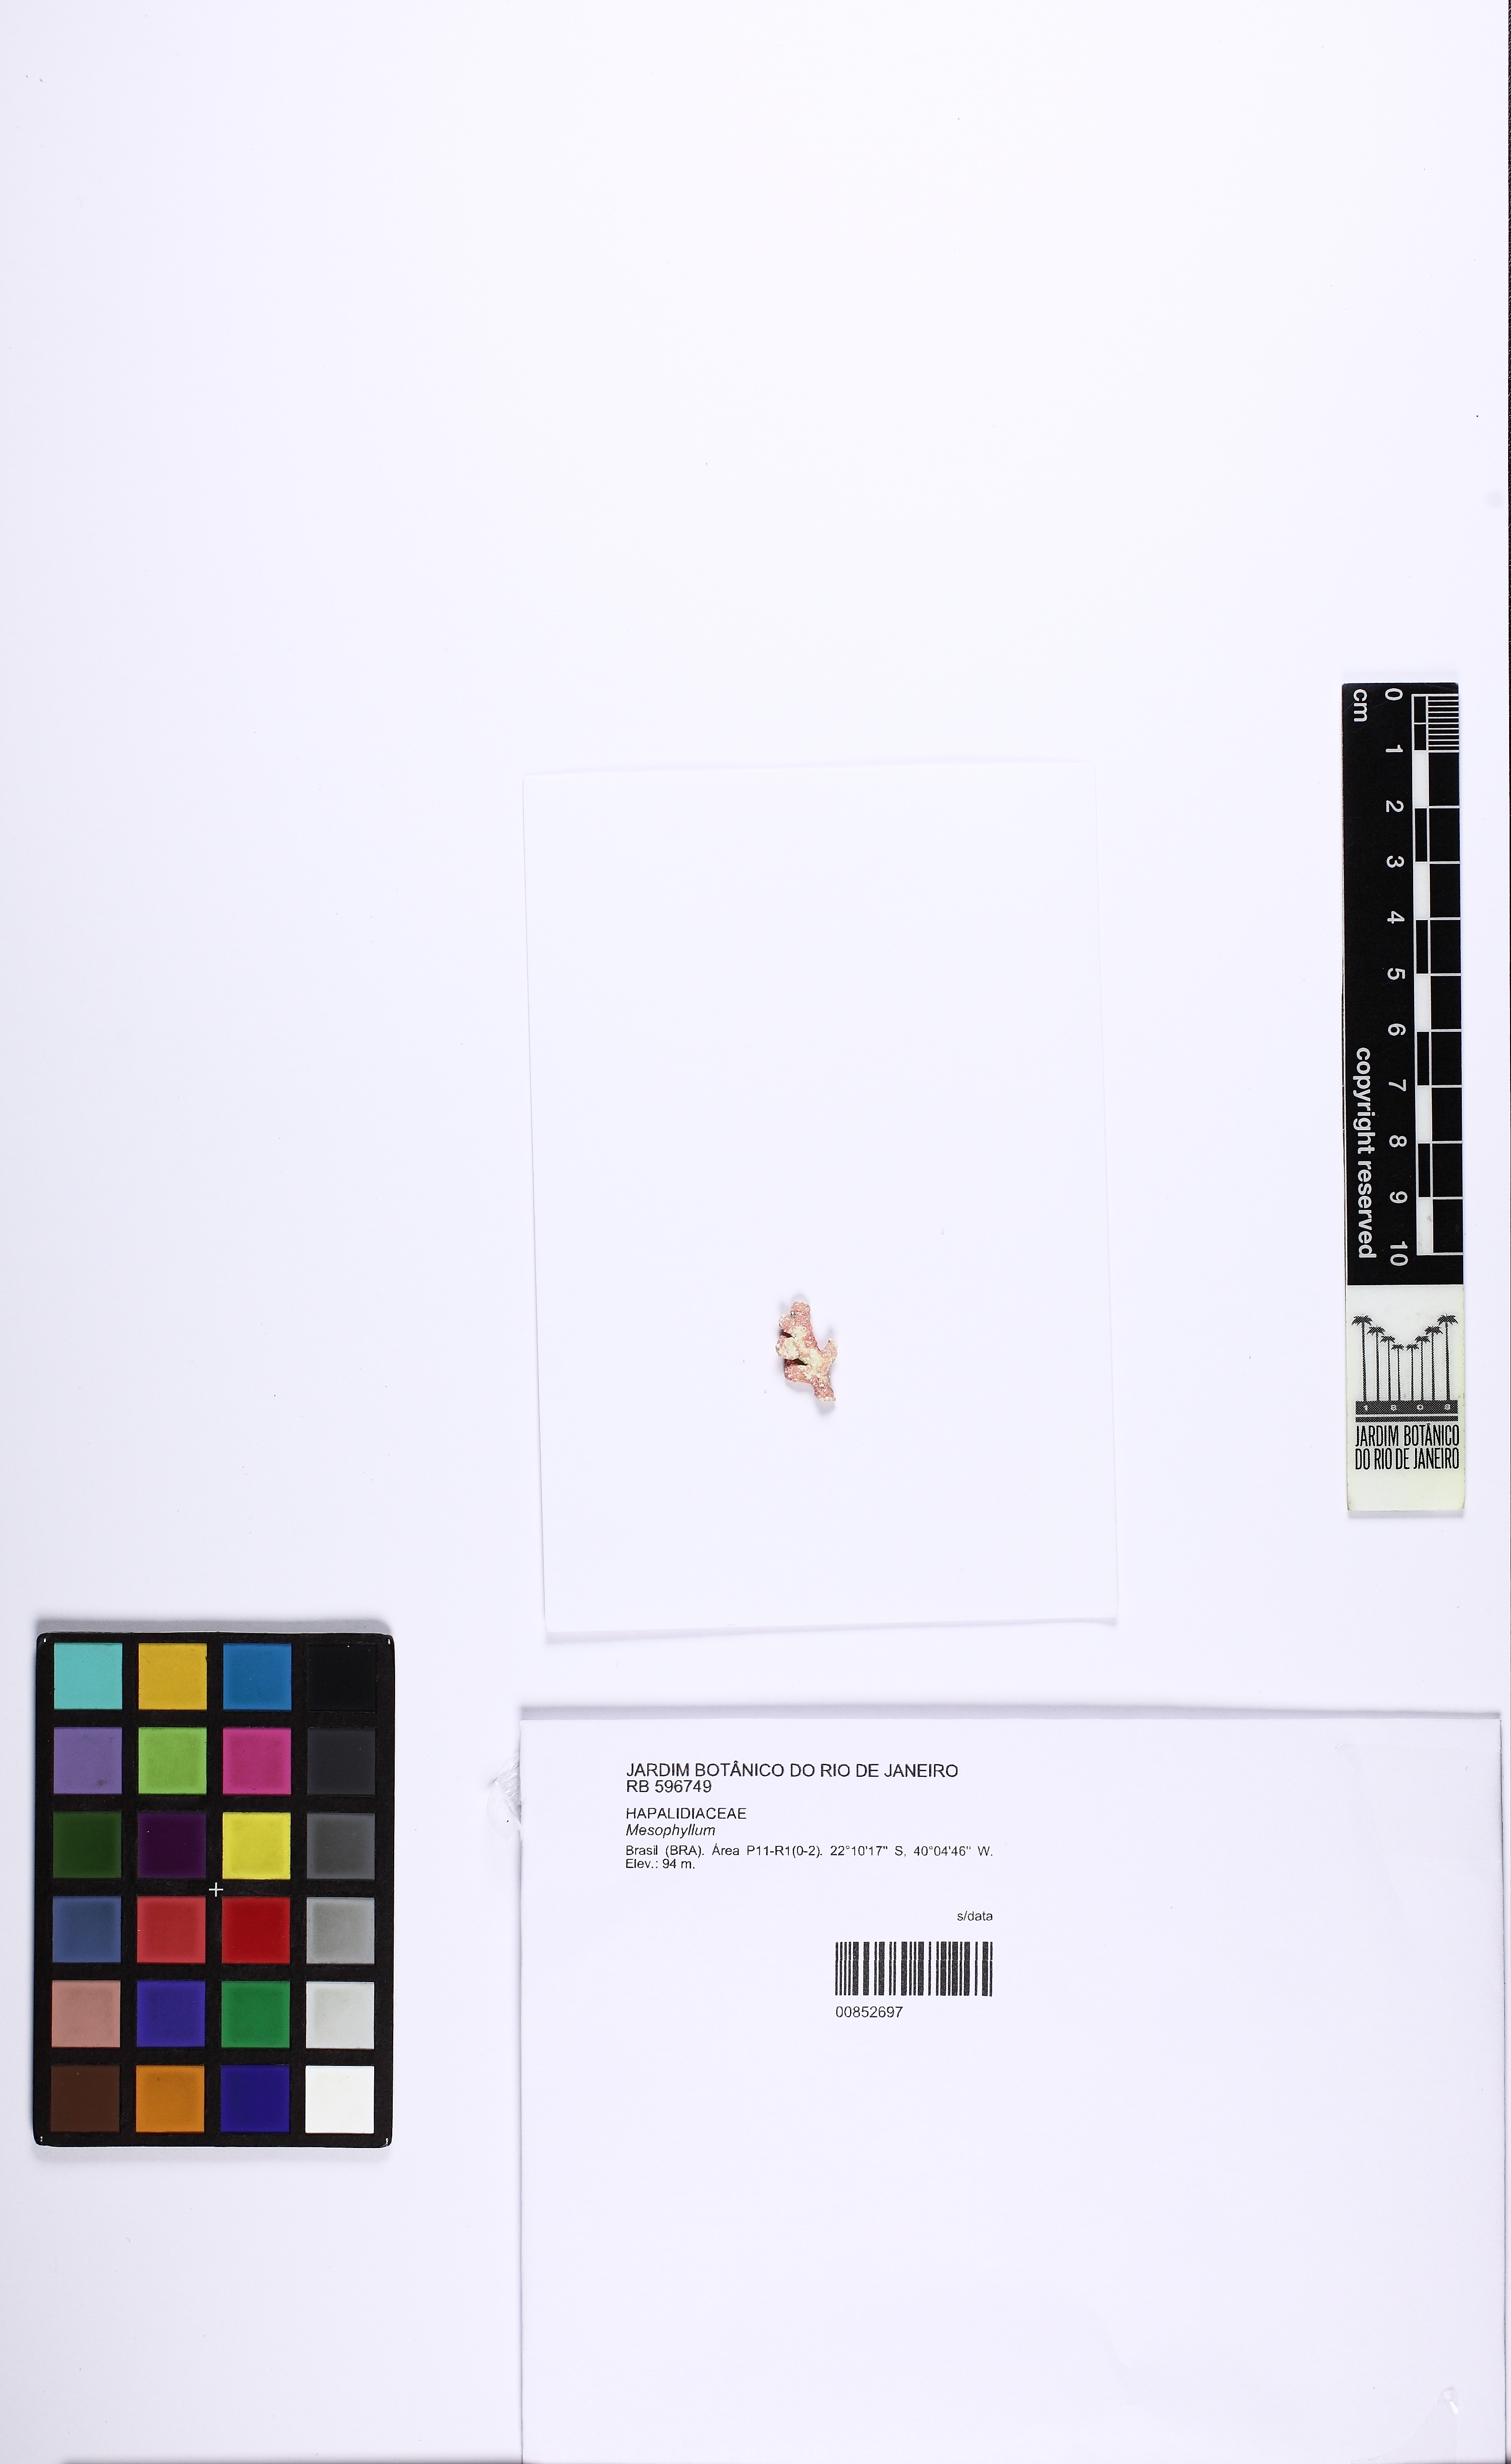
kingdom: Plantae
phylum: Rhodophyta
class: Florideophyceae
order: Corallinales
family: Mesophyllumaceae
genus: Mesophyllum
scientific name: Mesophyllum
